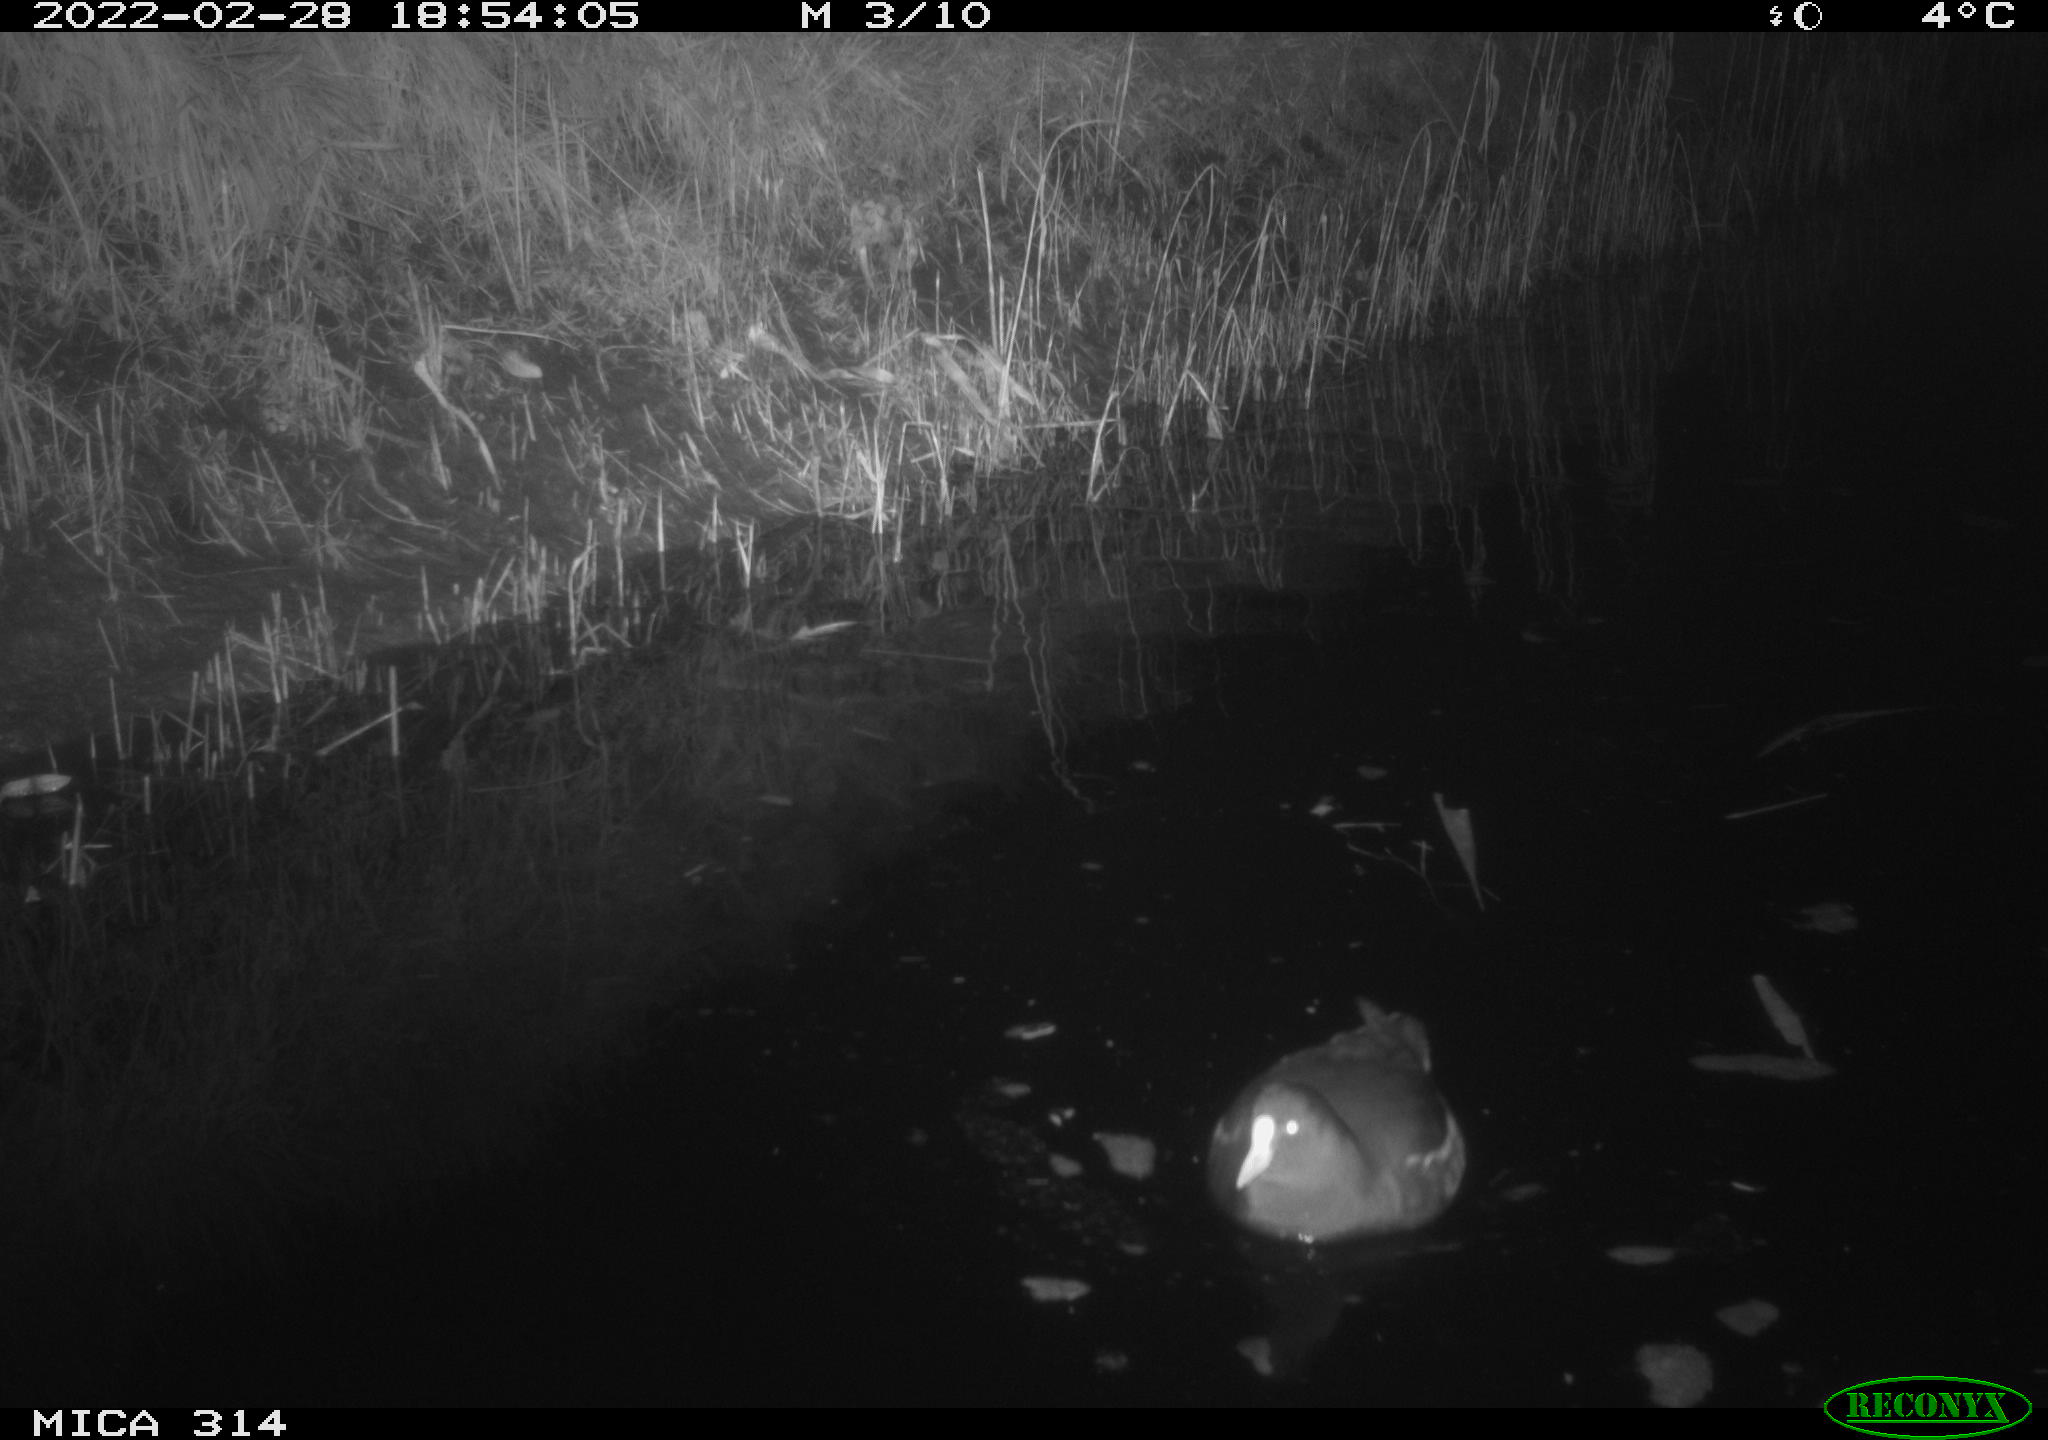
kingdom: Animalia
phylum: Chordata
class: Aves
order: Gruiformes
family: Rallidae
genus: Gallinula
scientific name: Gallinula chloropus
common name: Common moorhen
